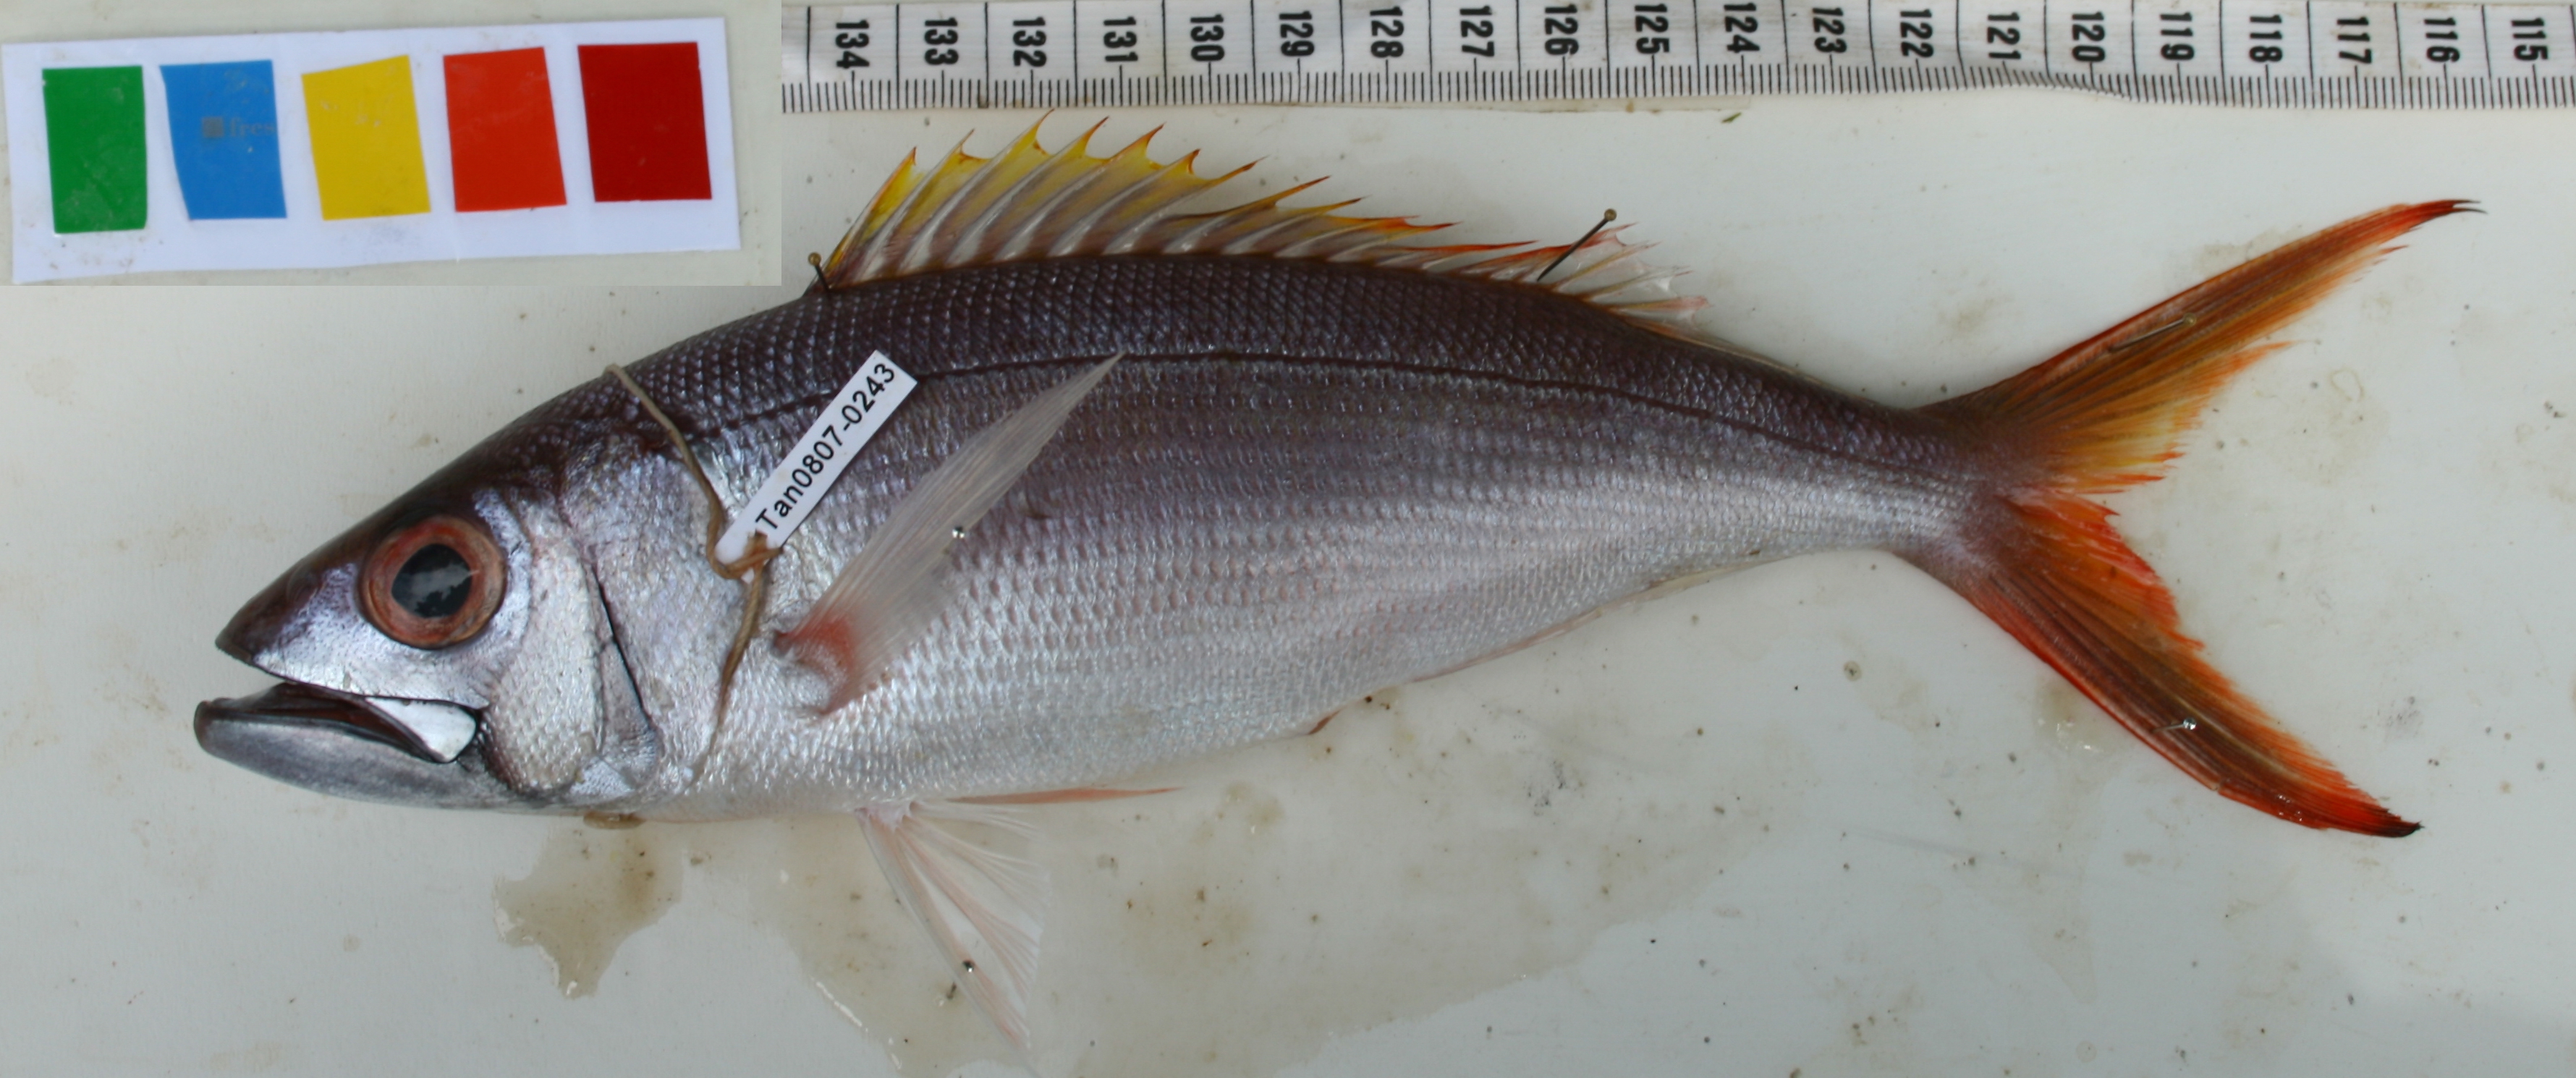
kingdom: Animalia
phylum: Chordata
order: Perciformes
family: Lutjanidae
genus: Aphareus
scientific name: Aphareus rutilans
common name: Rusty jobfish
